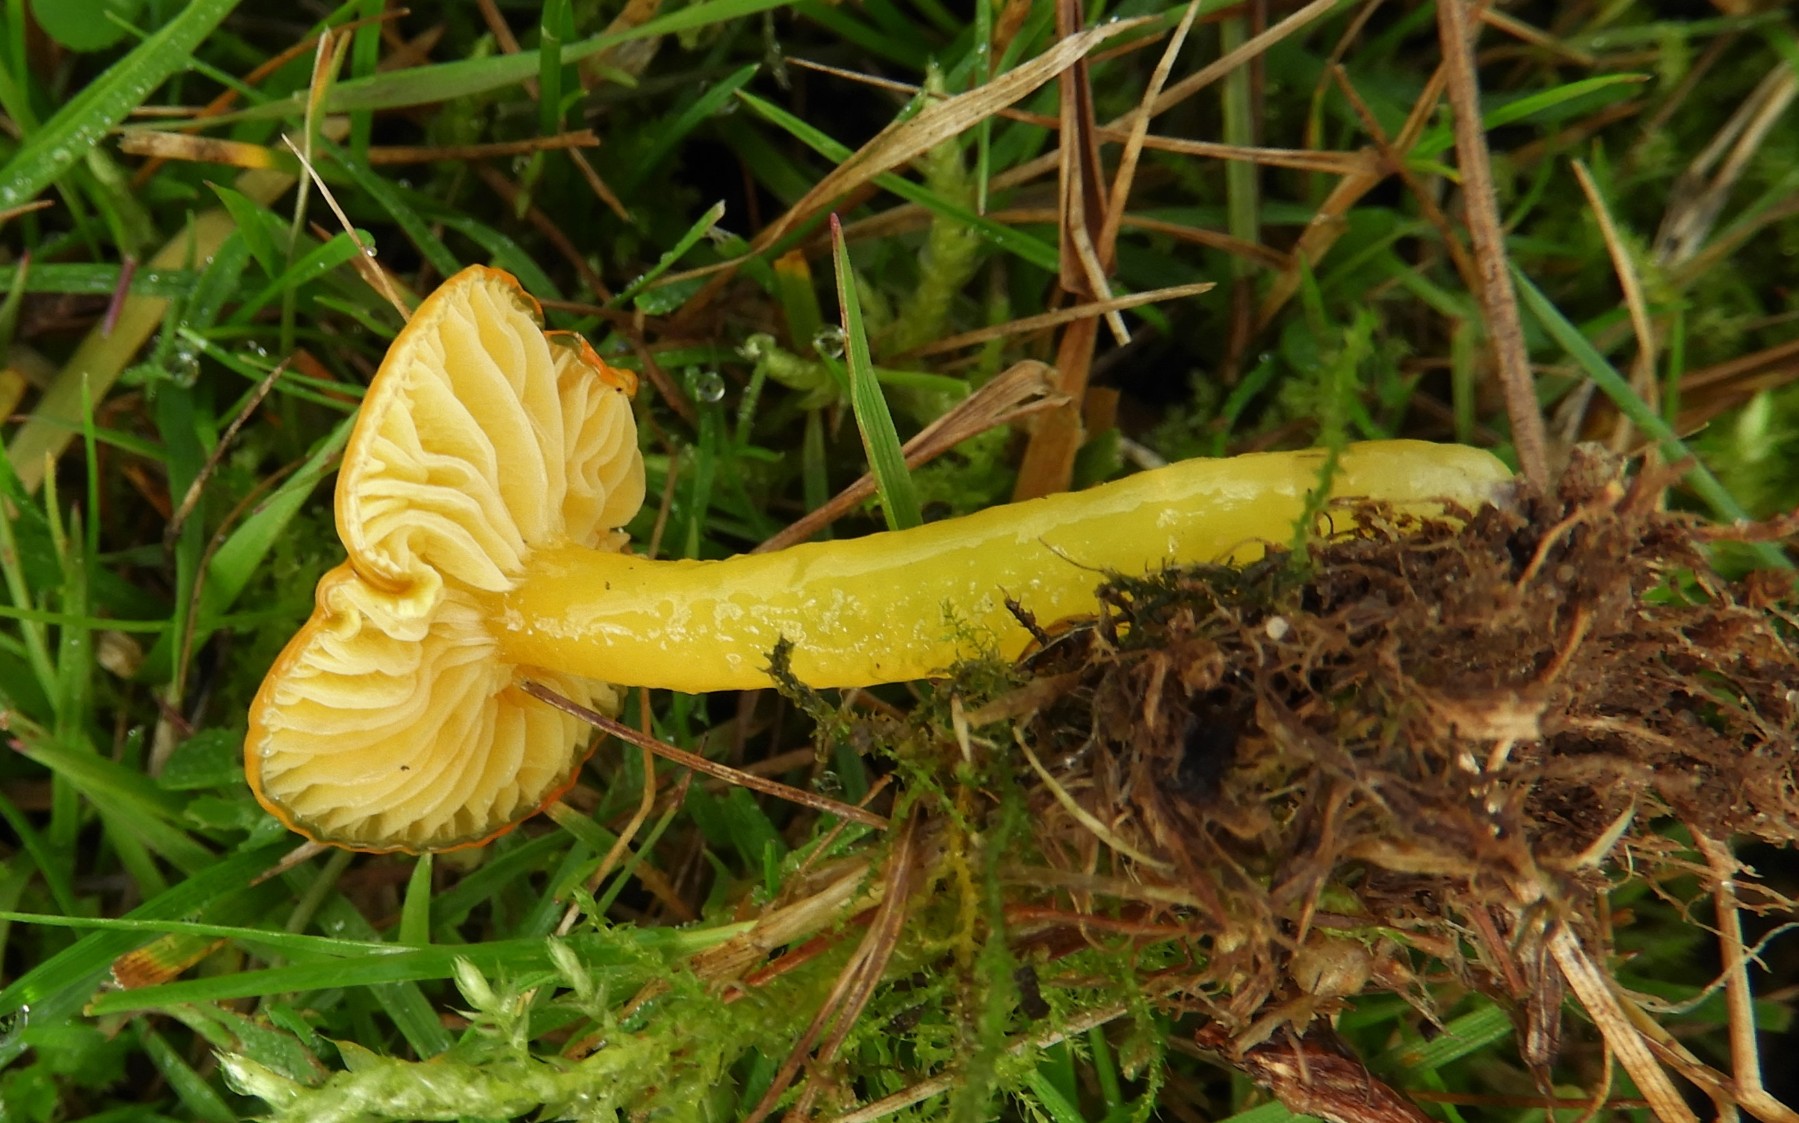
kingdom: Fungi
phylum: Basidiomycota
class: Agaricomycetes
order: Agaricales
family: Hygrophoraceae
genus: Hygrocybe
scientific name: Hygrocybe glutinipes
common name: slimstokket vokshat
